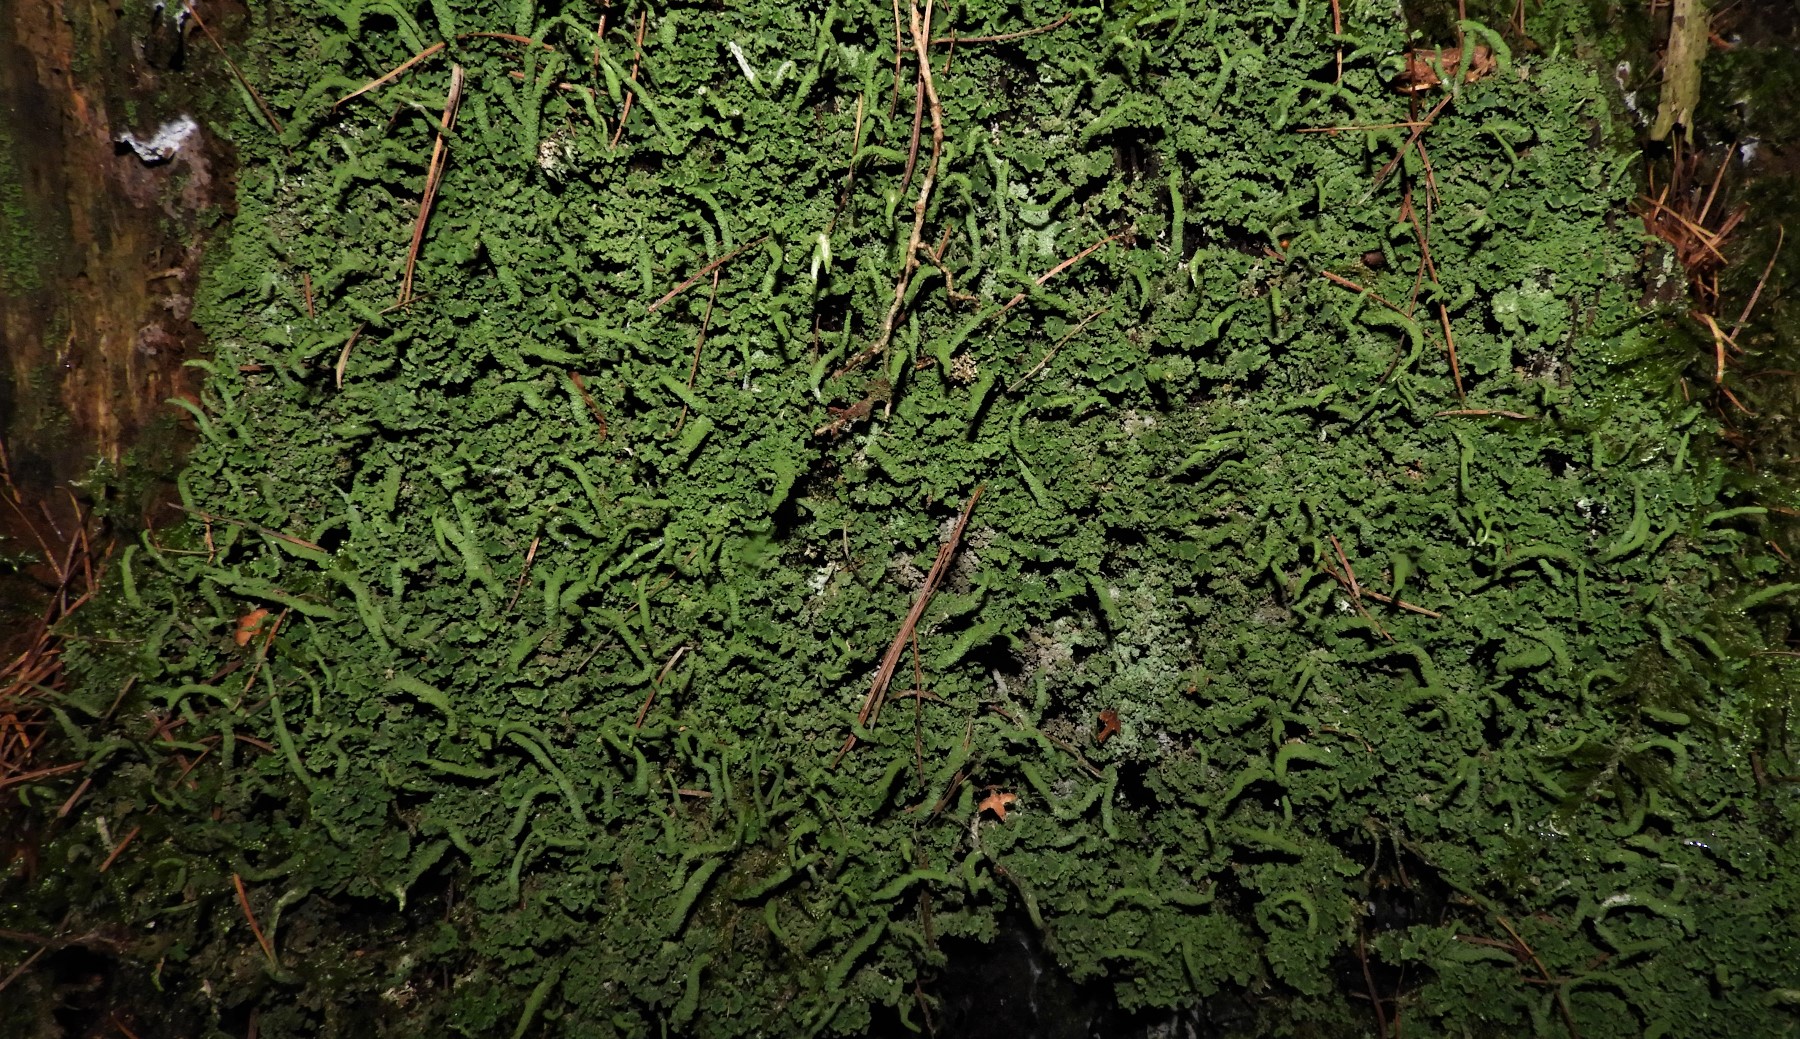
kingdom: Fungi
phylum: Ascomycota
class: Lecanoromycetes
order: Lecanorales
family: Cladoniaceae
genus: Cladonia
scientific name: Cladonia coniocraea
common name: træfods-bægerlav
